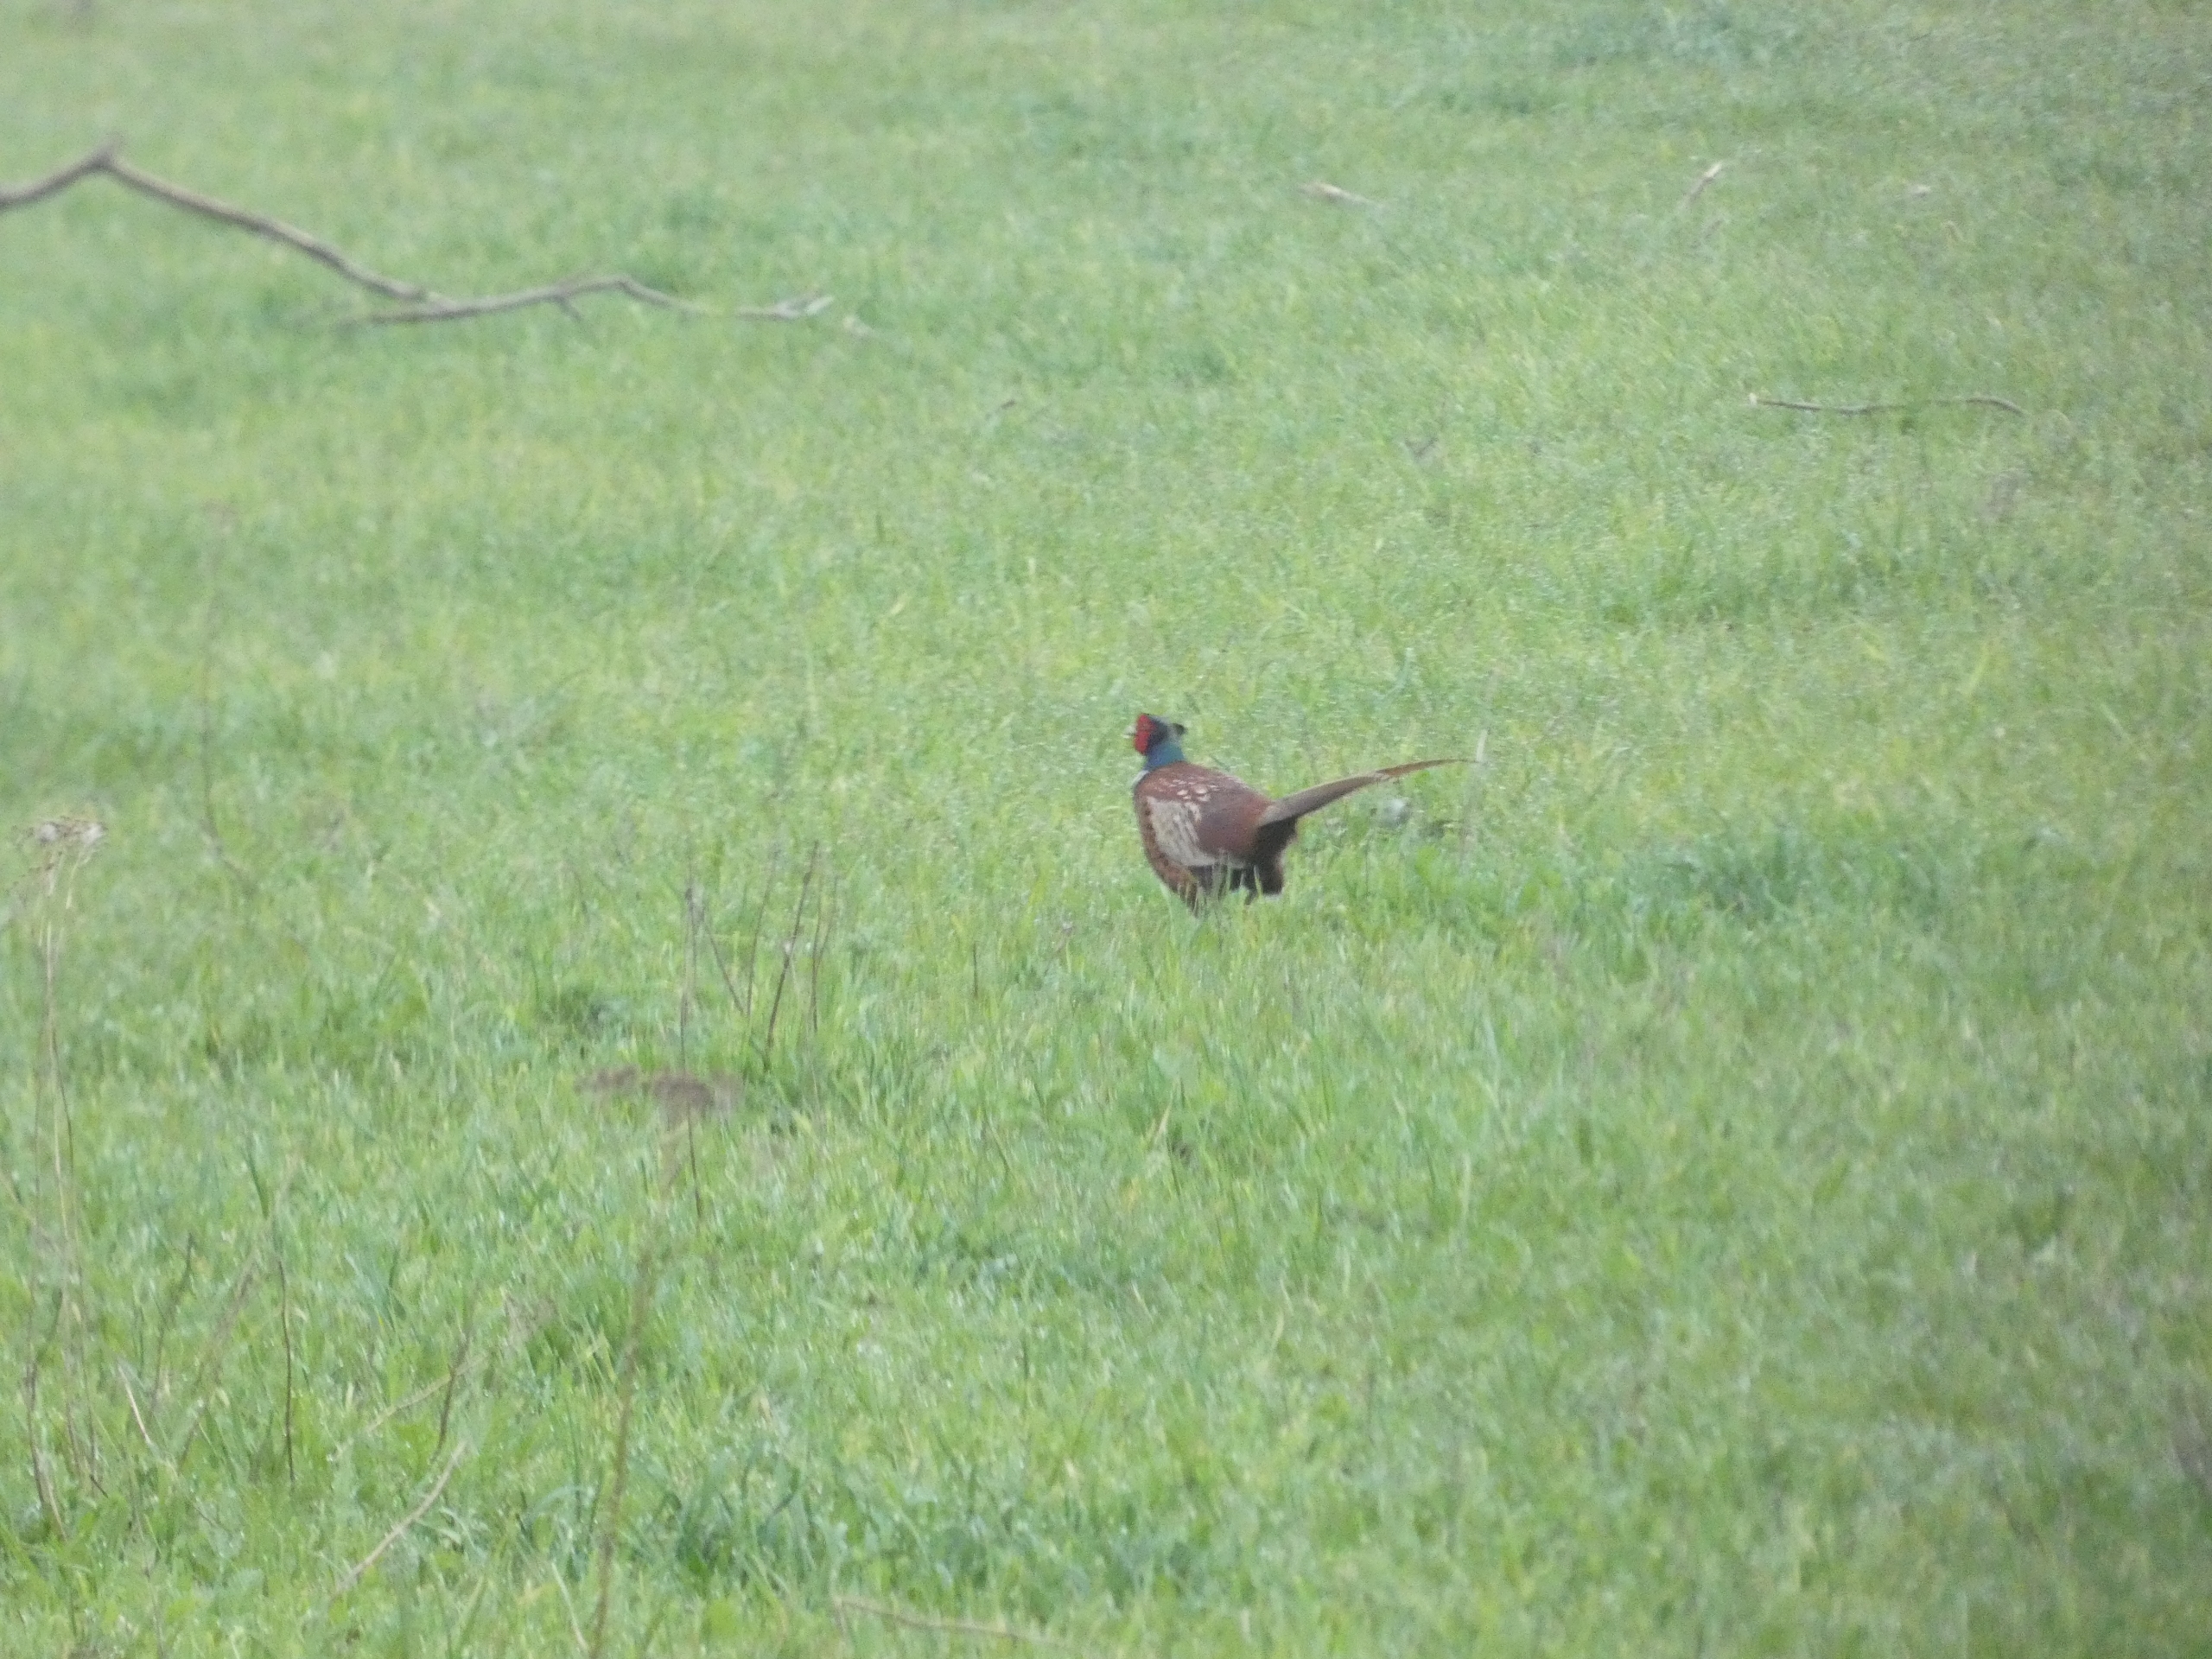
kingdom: Animalia
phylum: Chordata
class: Aves
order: Galliformes
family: Phasianidae
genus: Phasianus
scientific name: Phasianus colchicus
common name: Fasan
